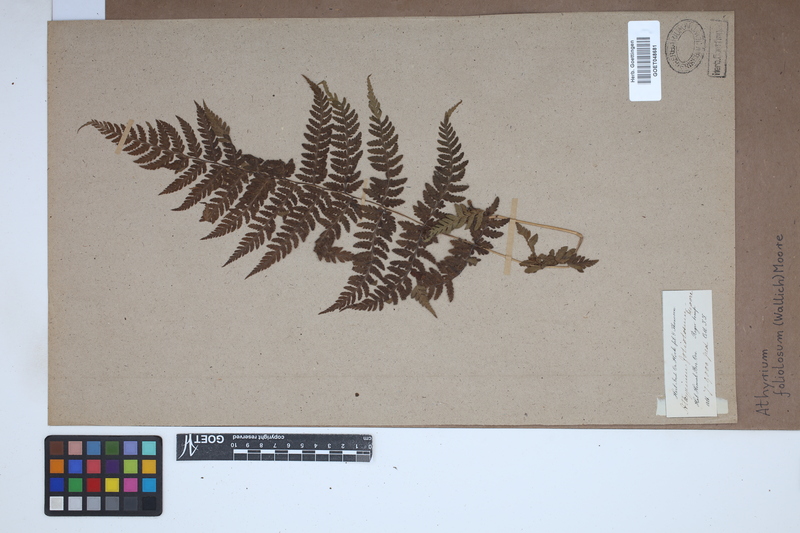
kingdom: Plantae
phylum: Tracheophyta
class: Polypodiopsida
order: Polypodiales
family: Athyriaceae
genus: Athyrium
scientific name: Athyrium foliolosum
